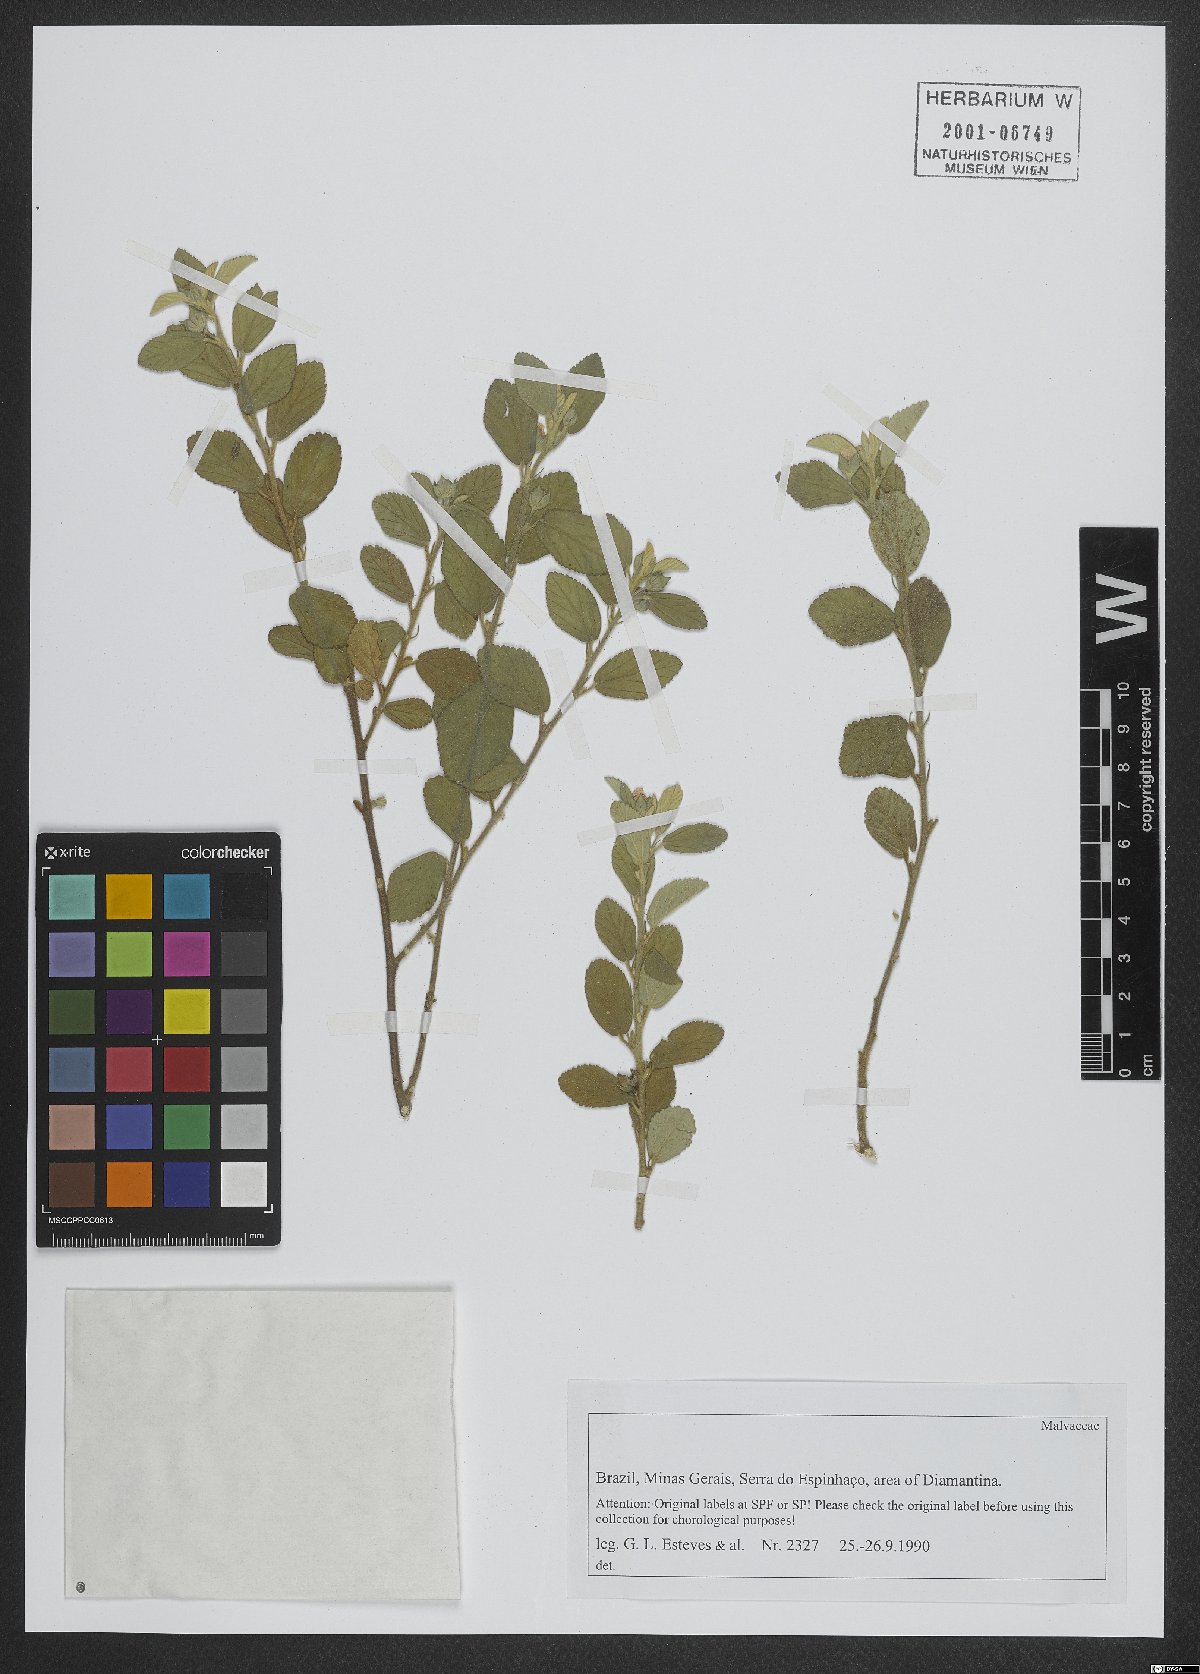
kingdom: Plantae
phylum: Tracheophyta
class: Magnoliopsida
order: Malvales
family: Malvaceae
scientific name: Malvaceae
